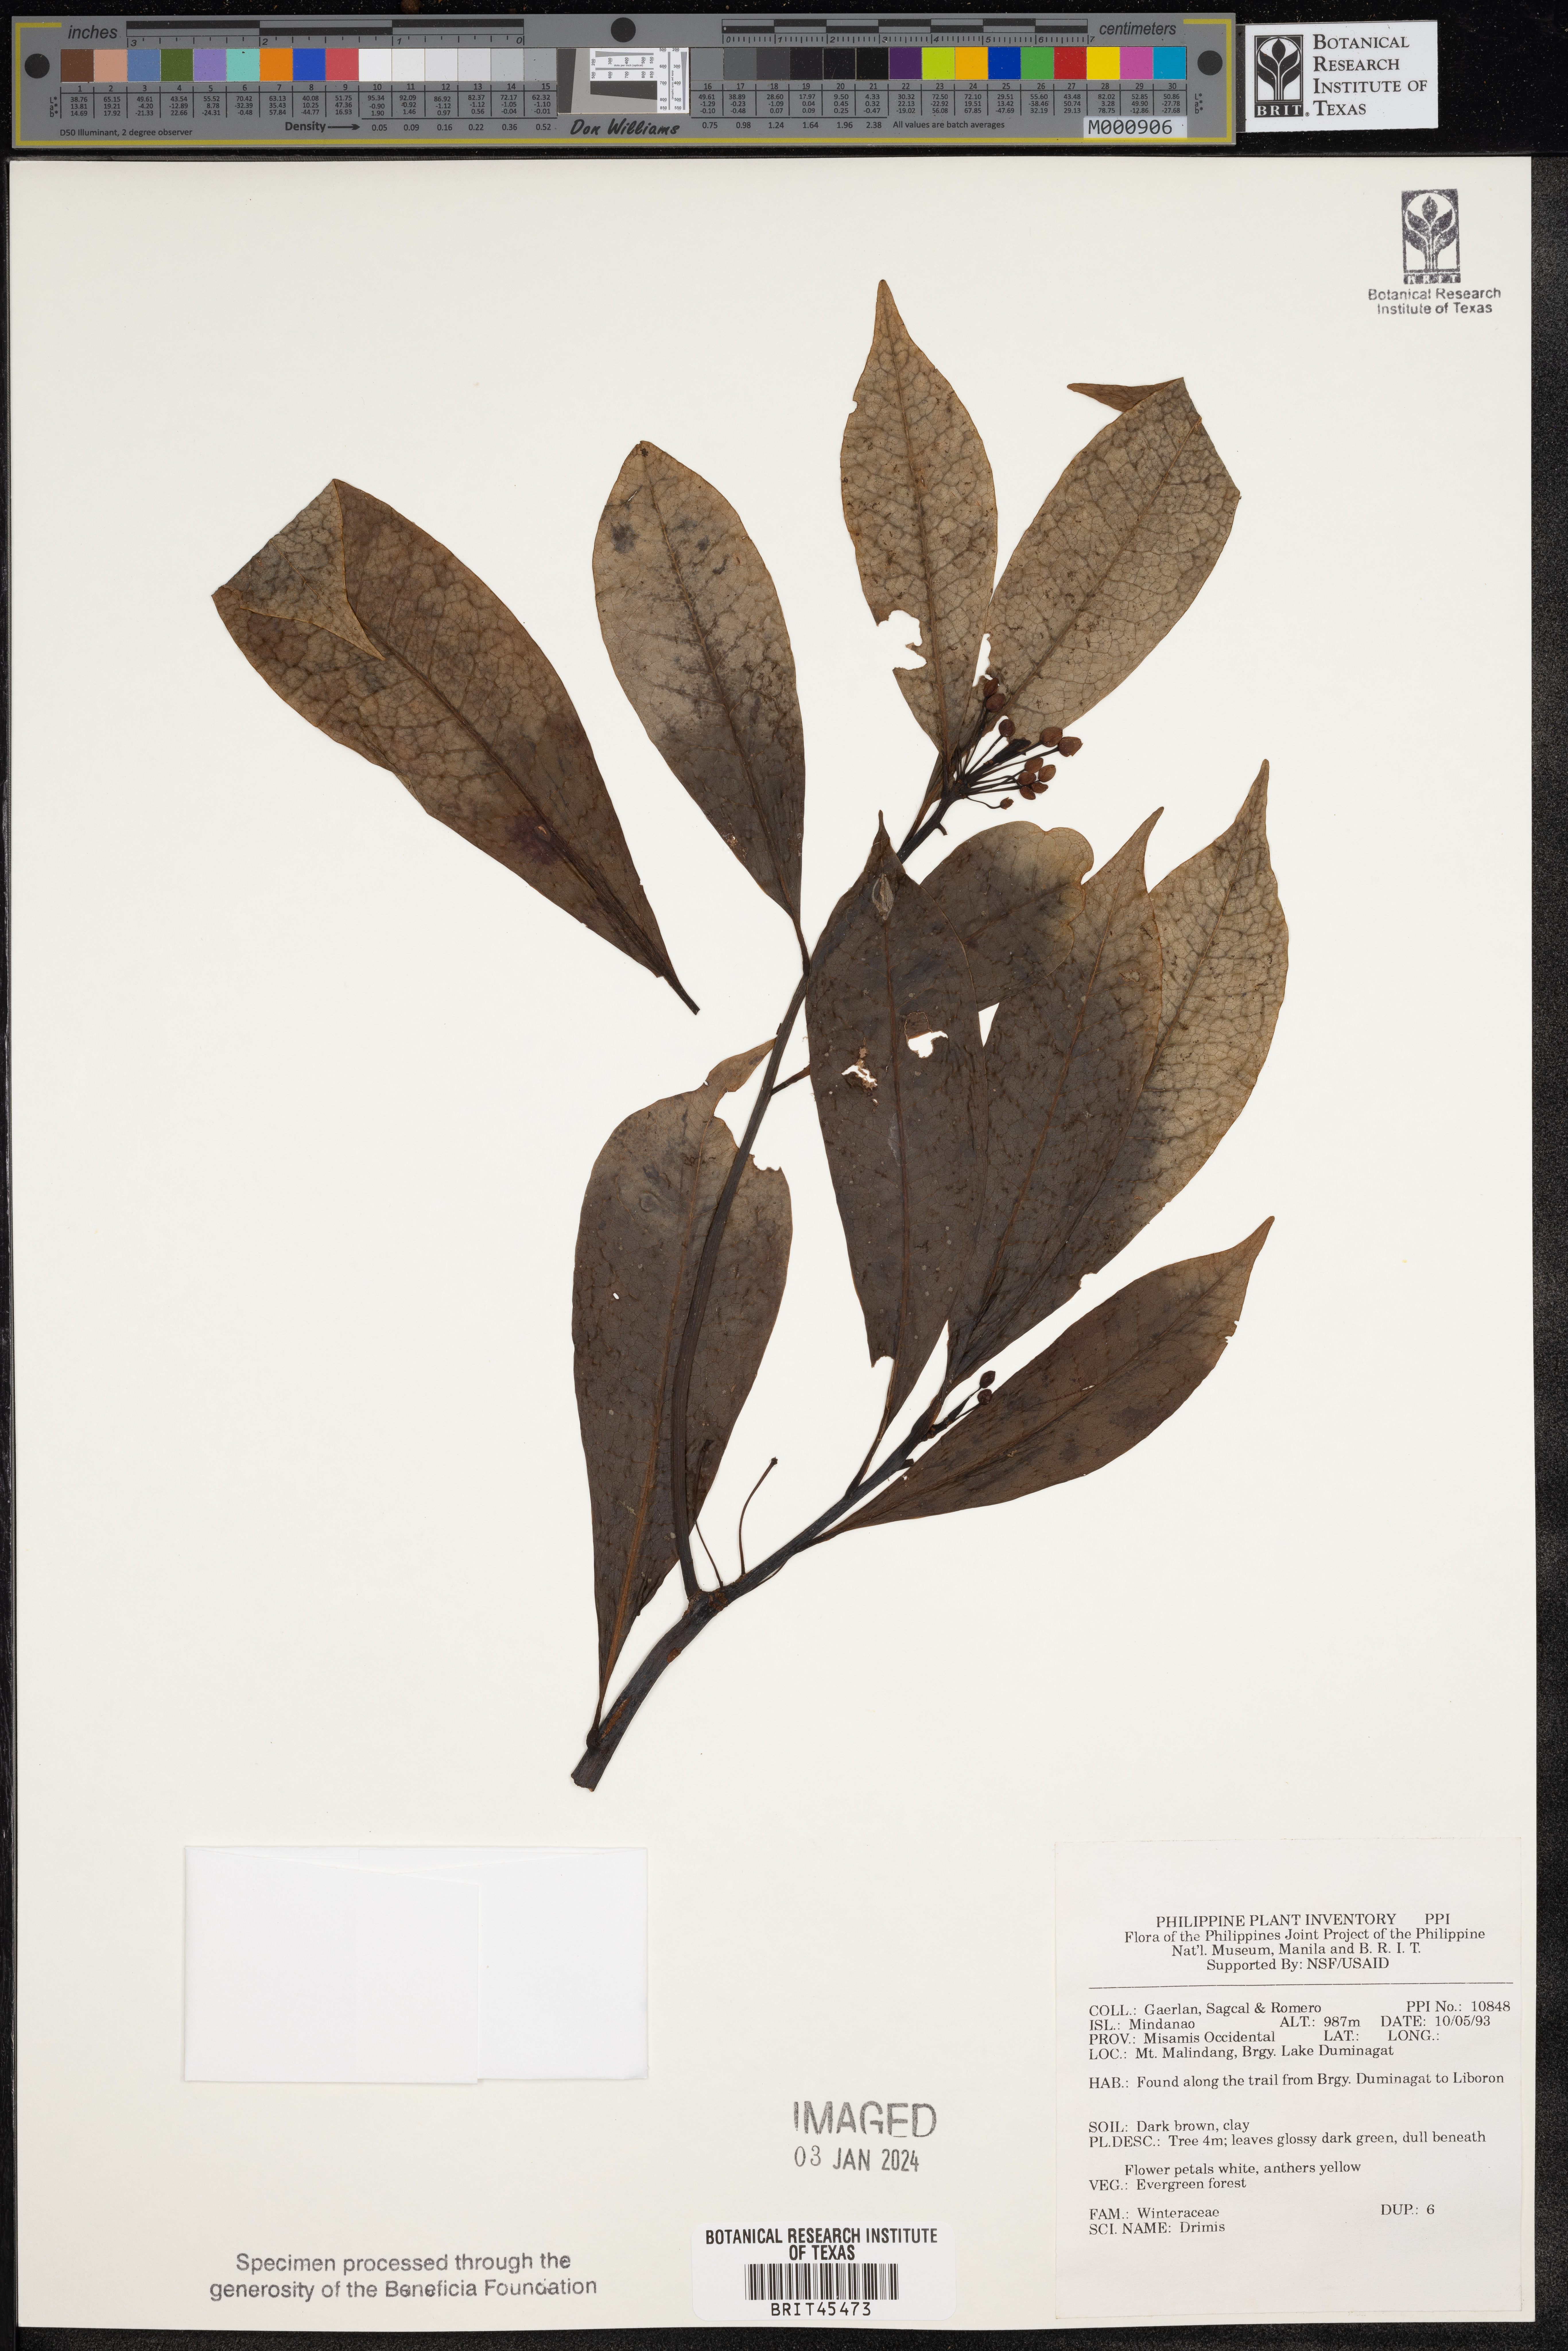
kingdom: Plantae
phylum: Tracheophyta
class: Magnoliopsida
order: Canellales
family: Winteraceae
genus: Drimys
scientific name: Drimys
